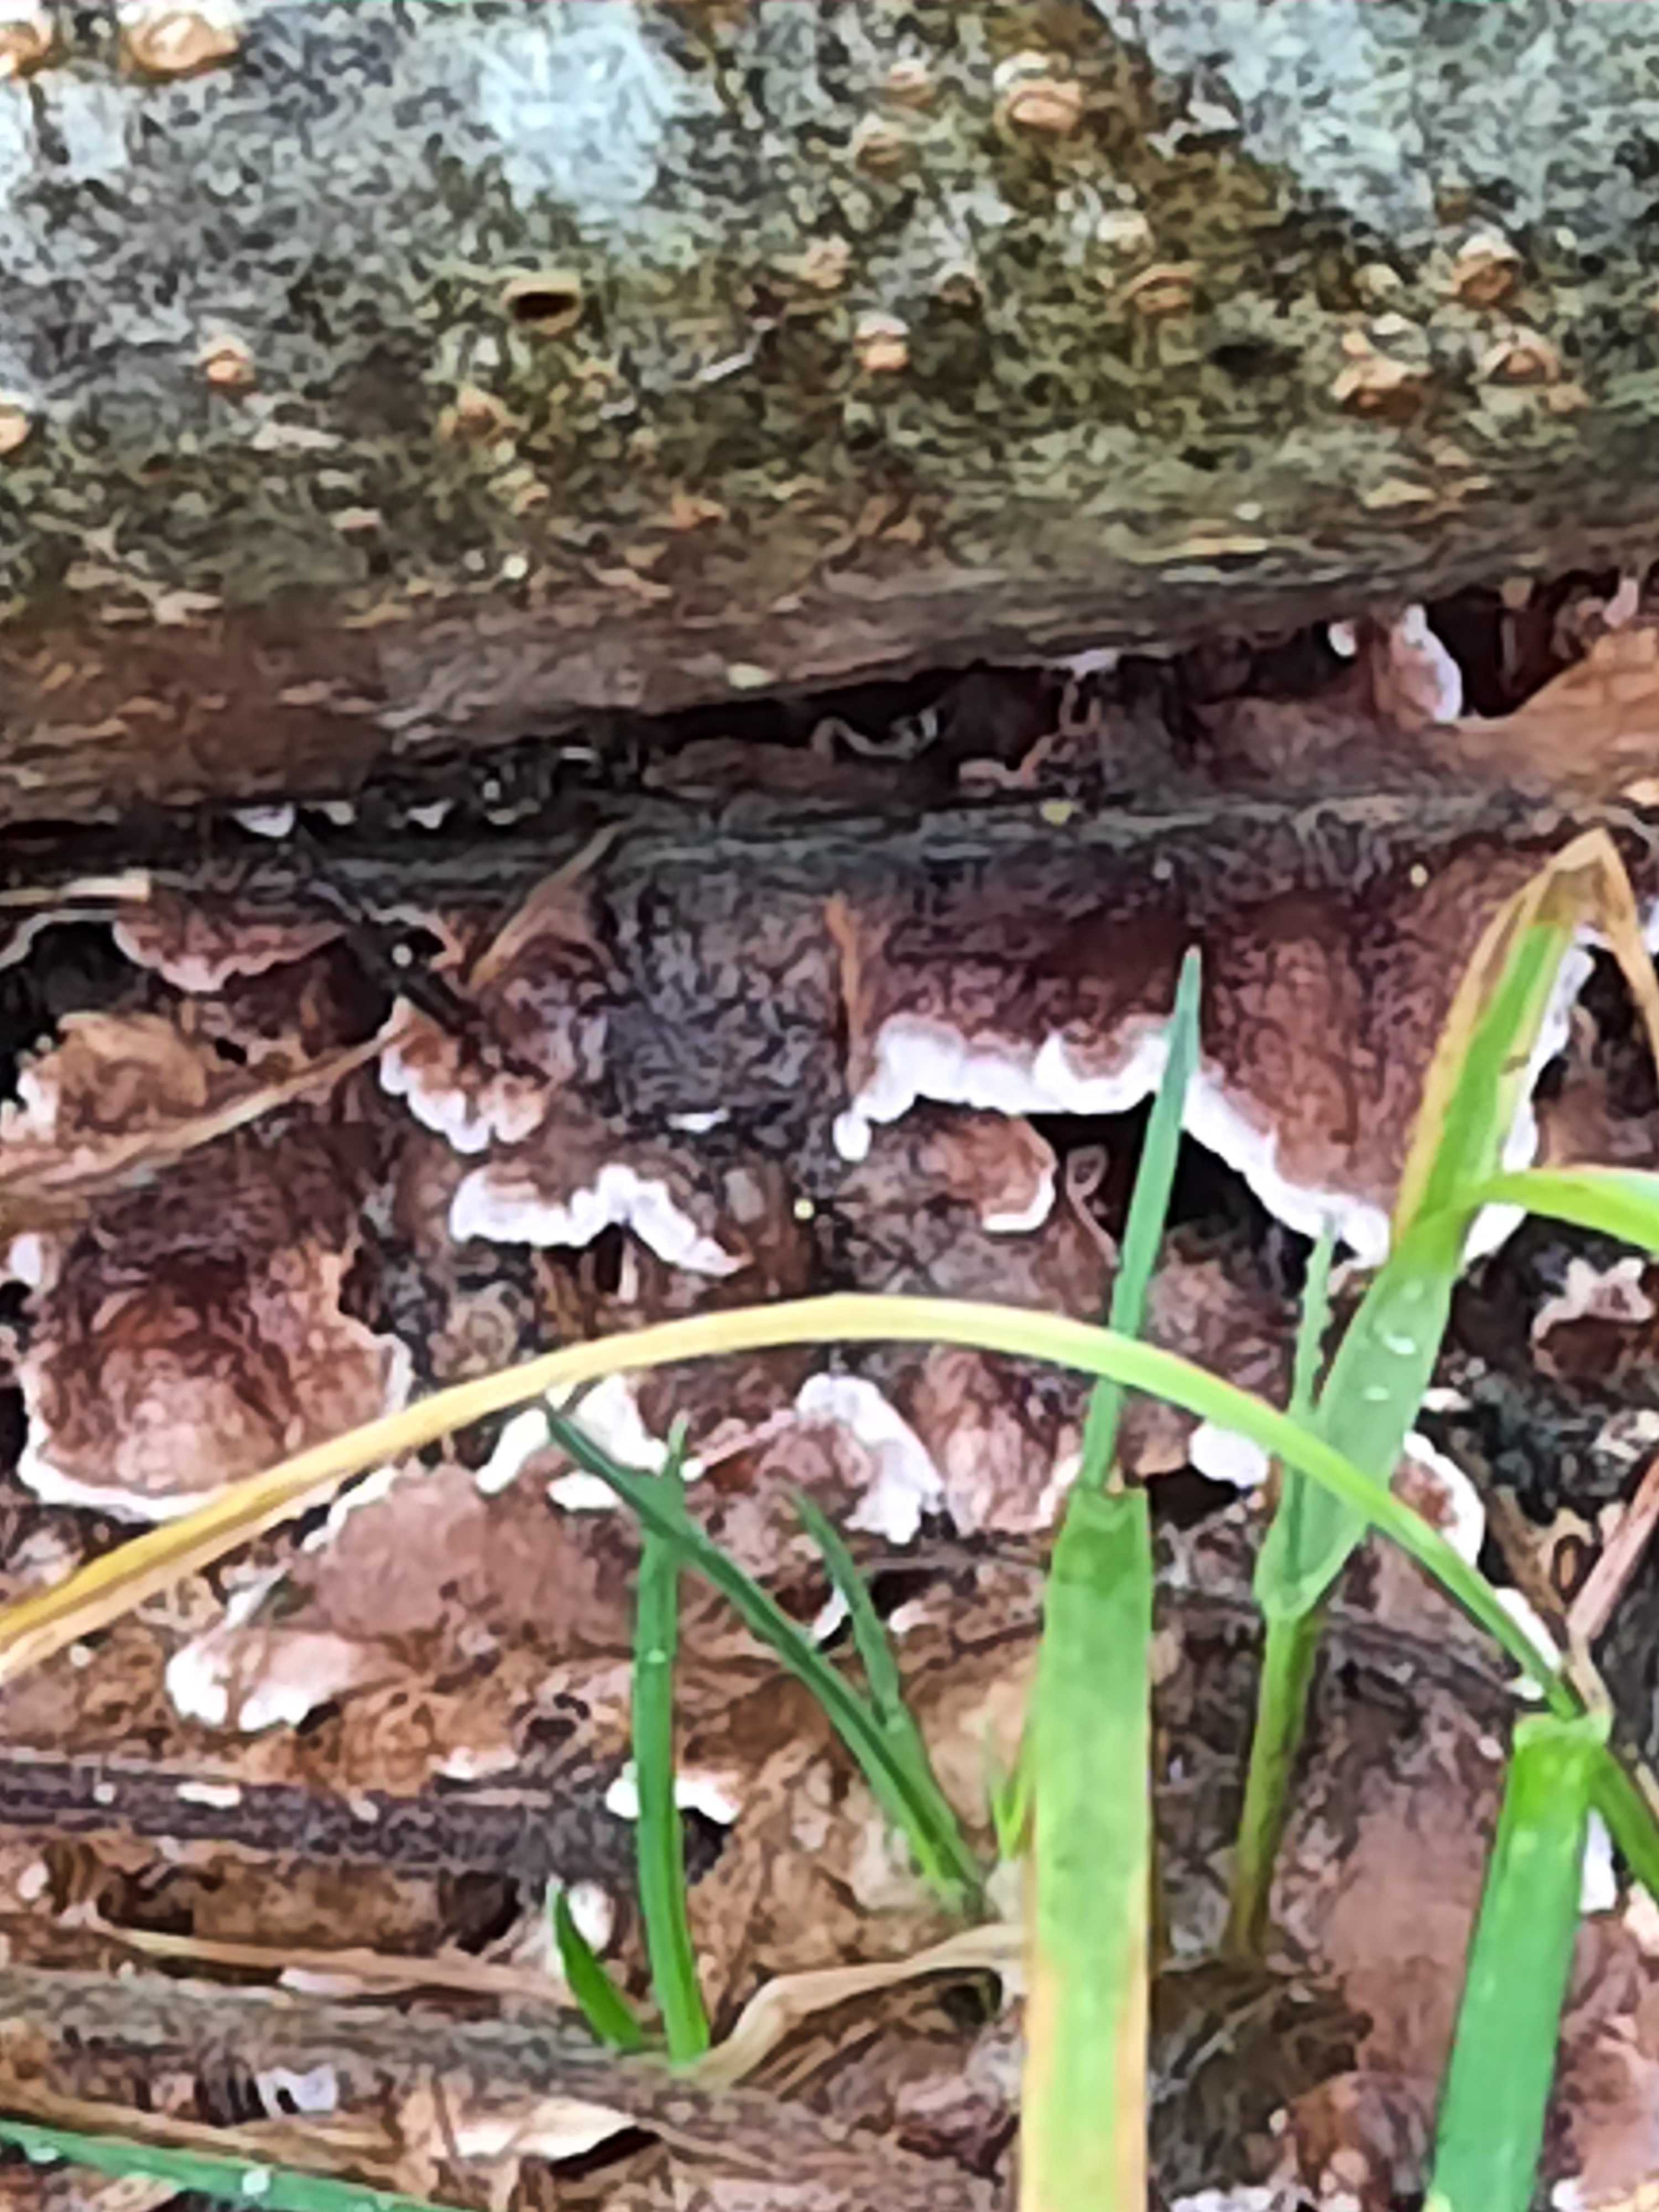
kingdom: Fungi
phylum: Basidiomycota
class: Agaricomycetes
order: Agaricales
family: Cyphellaceae
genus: Chondrostereum
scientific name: Chondrostereum purpureum
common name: purpurlædersvamp
